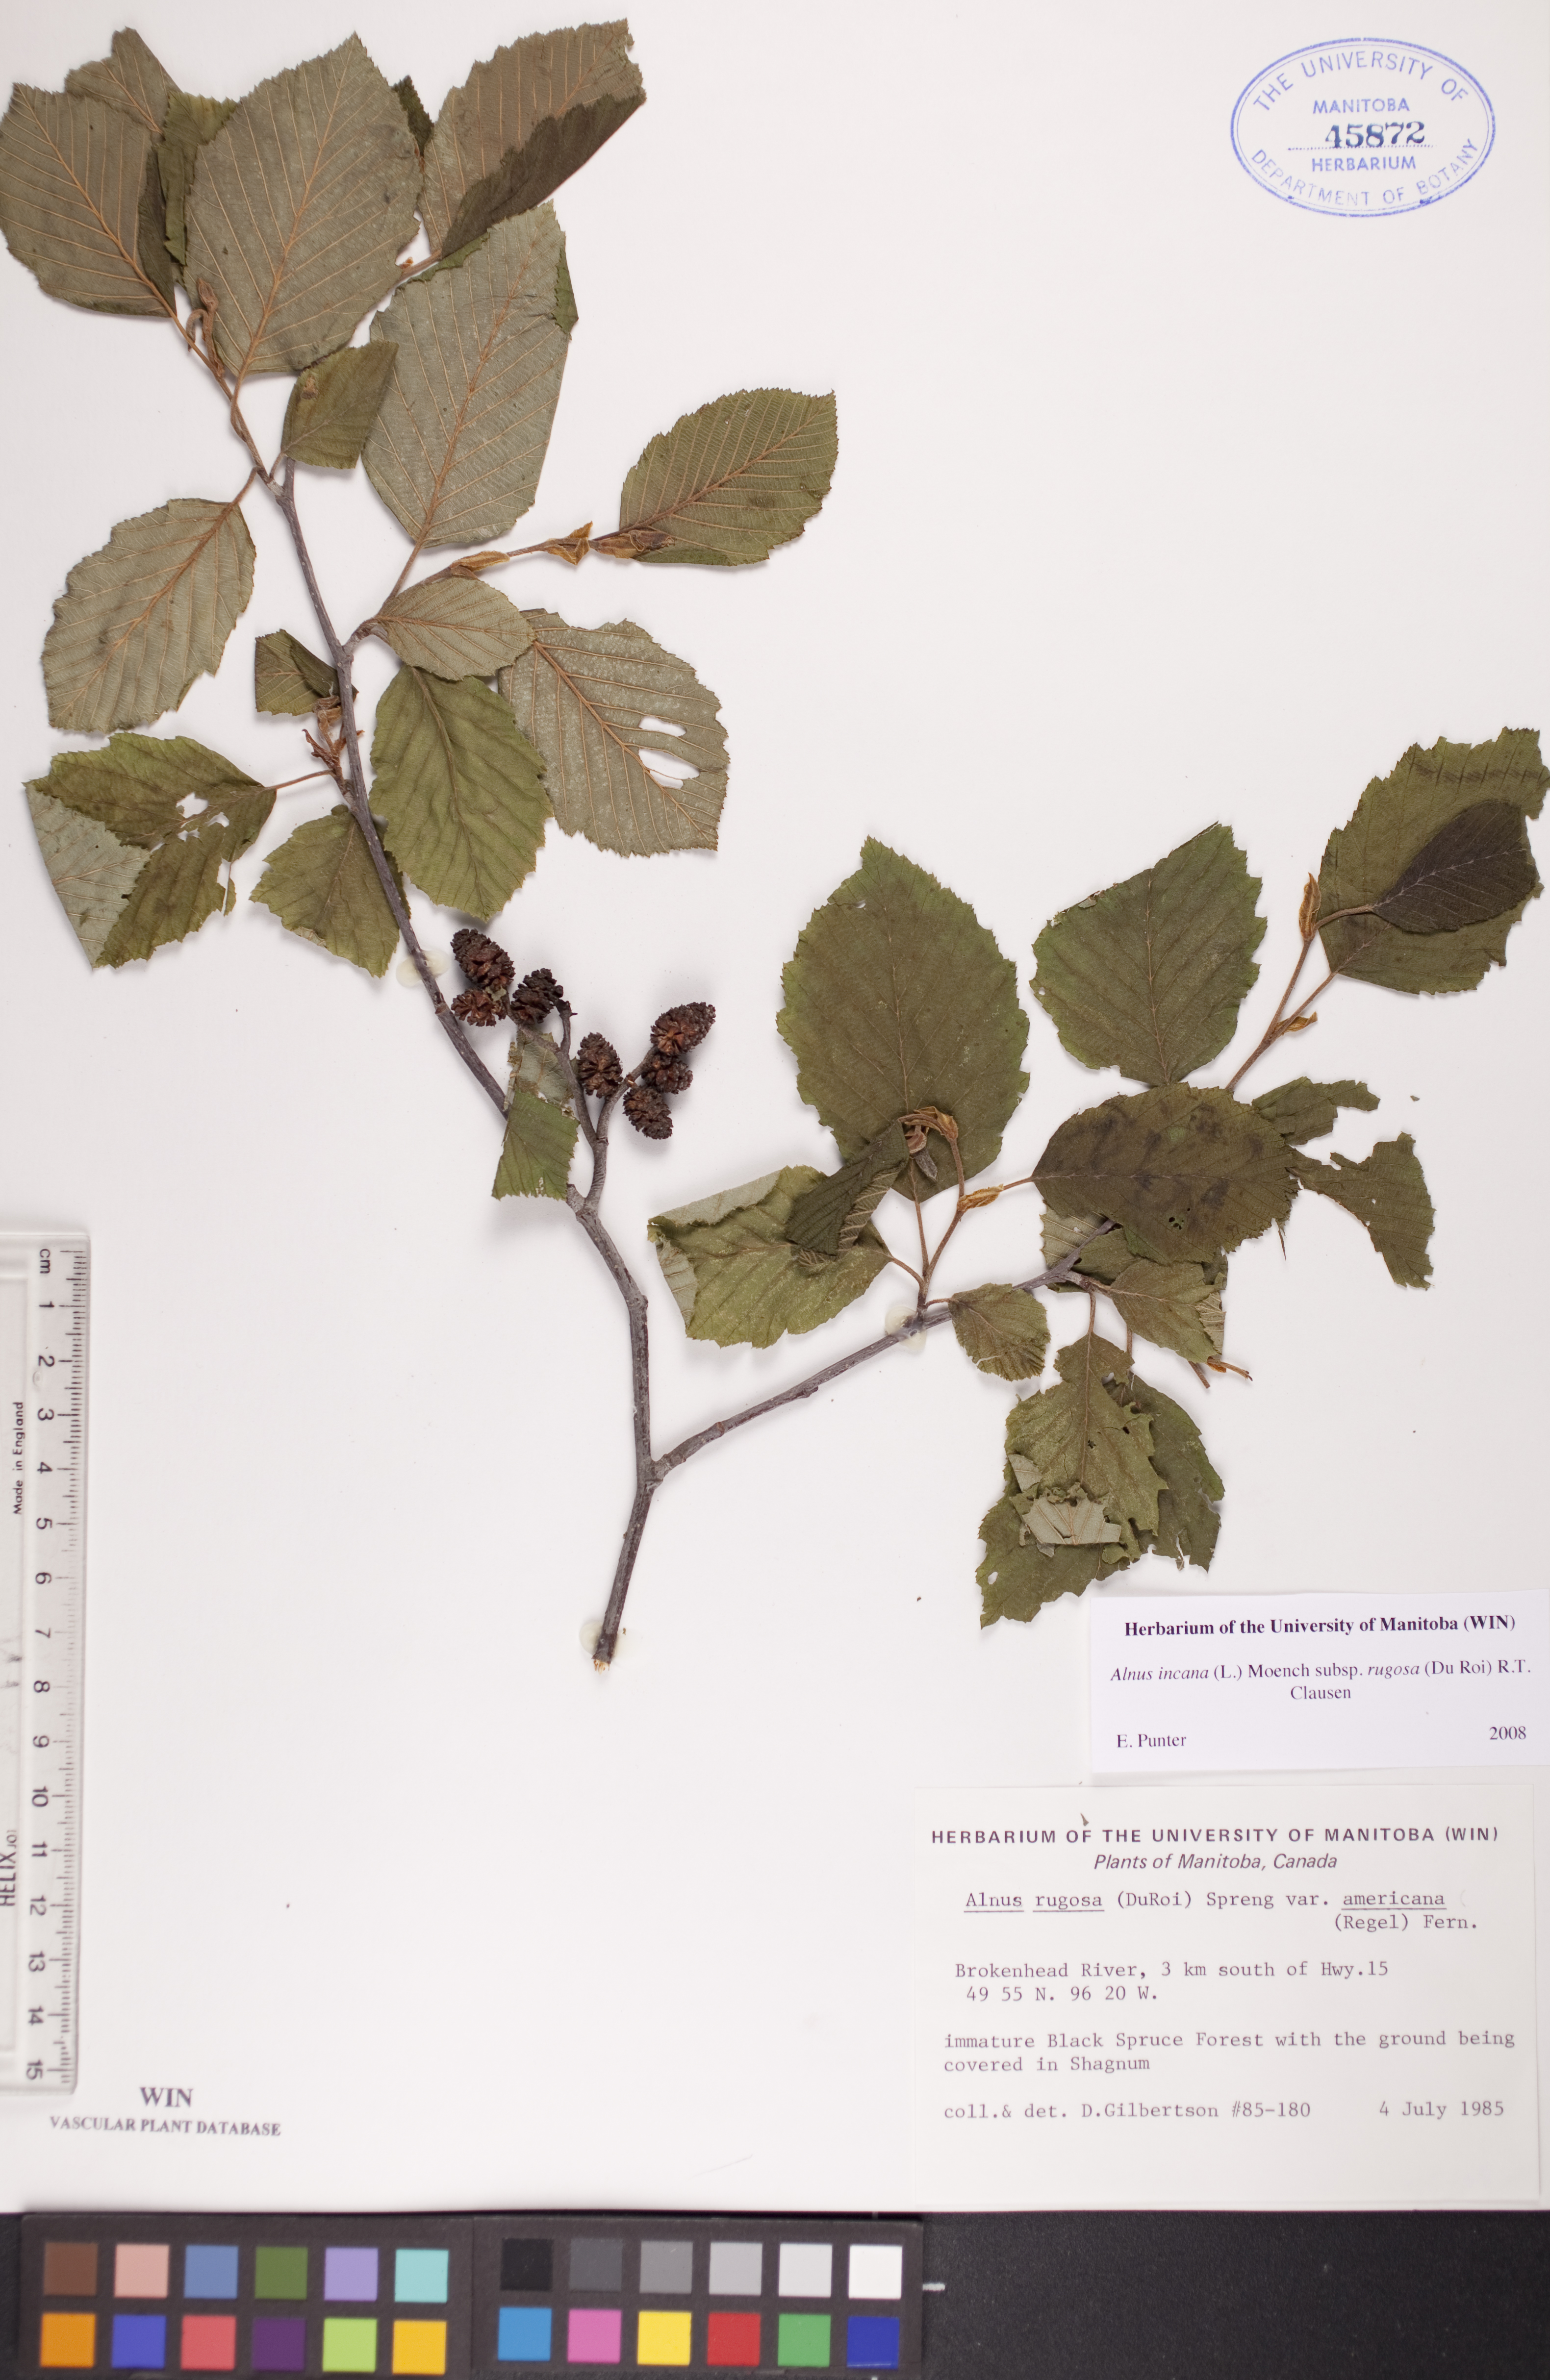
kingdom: Plantae
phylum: Tracheophyta
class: Magnoliopsida
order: Fagales
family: Betulaceae
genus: Alnus
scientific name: Alnus incana
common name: Grey alder
